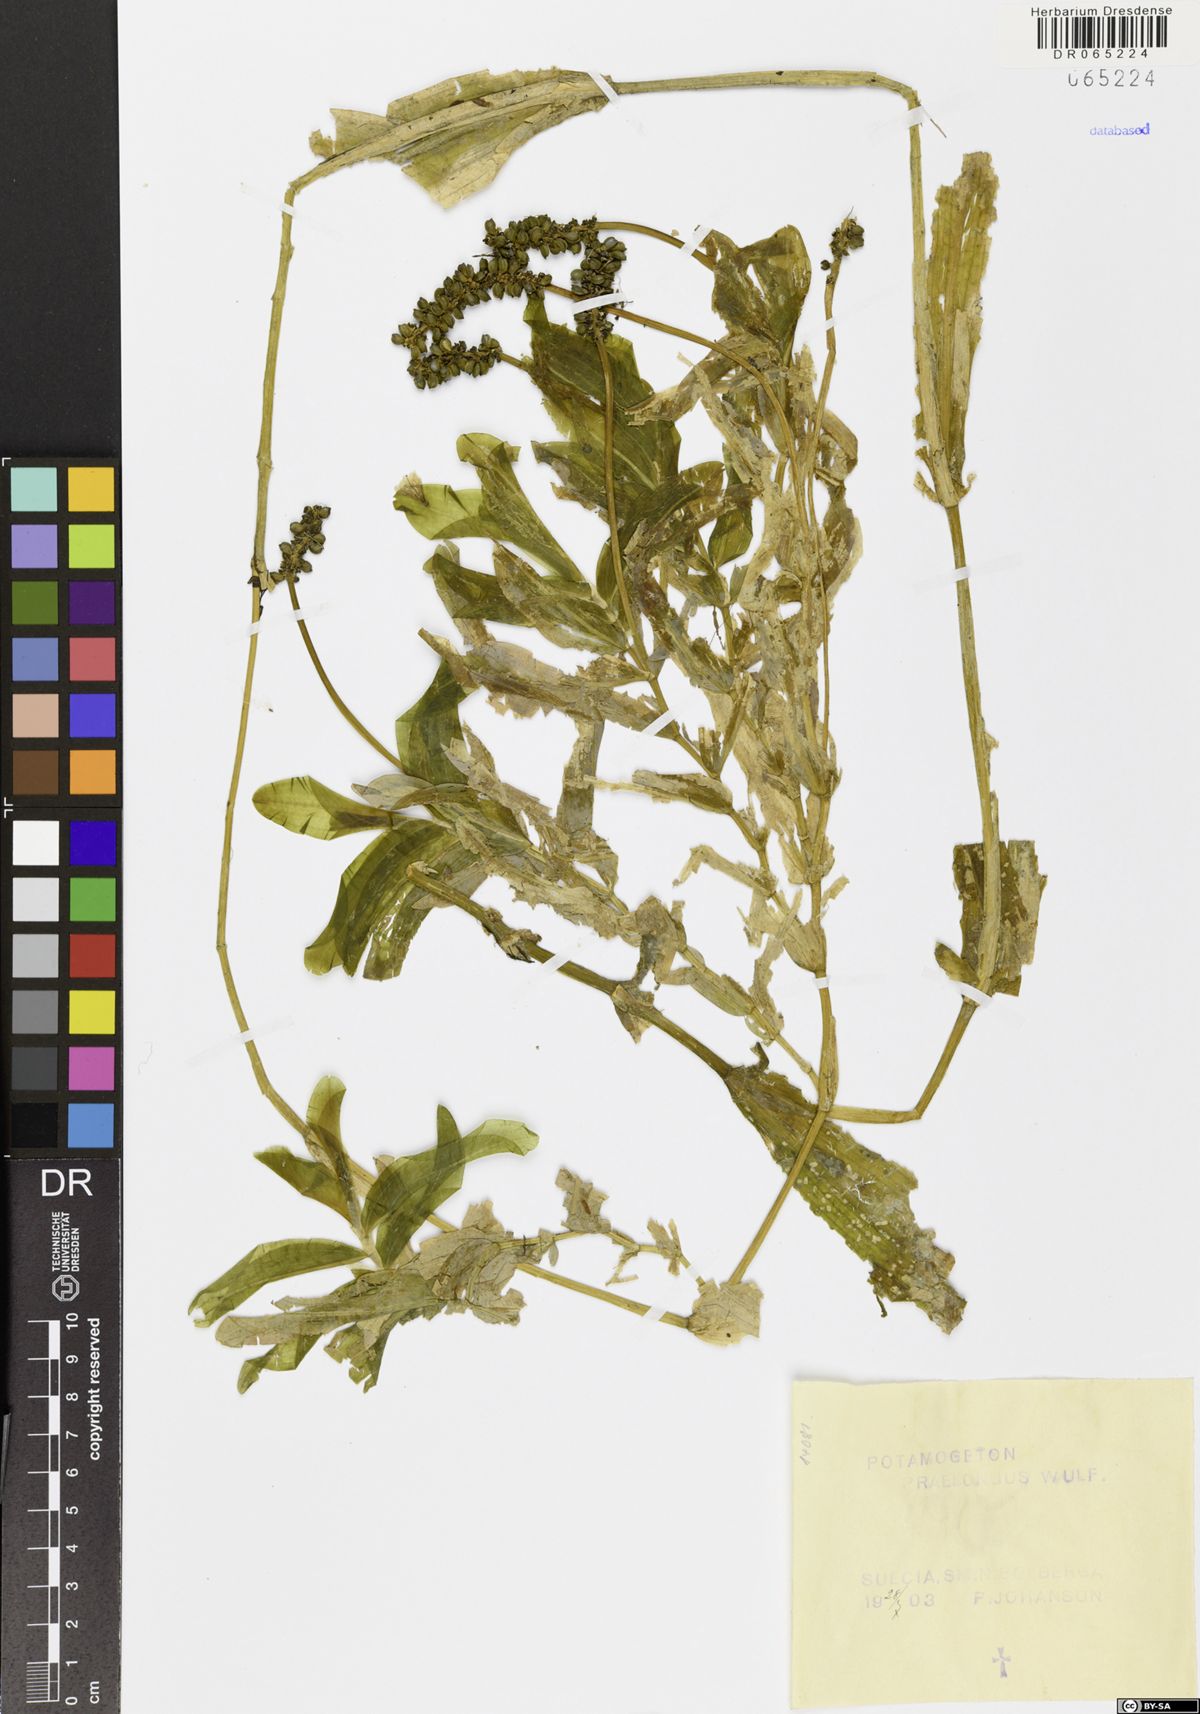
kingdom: Plantae
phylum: Tracheophyta
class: Liliopsida
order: Alismatales
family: Potamogetonaceae
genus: Potamogeton
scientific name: Potamogeton praelongus
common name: Long-stalked pondweed
